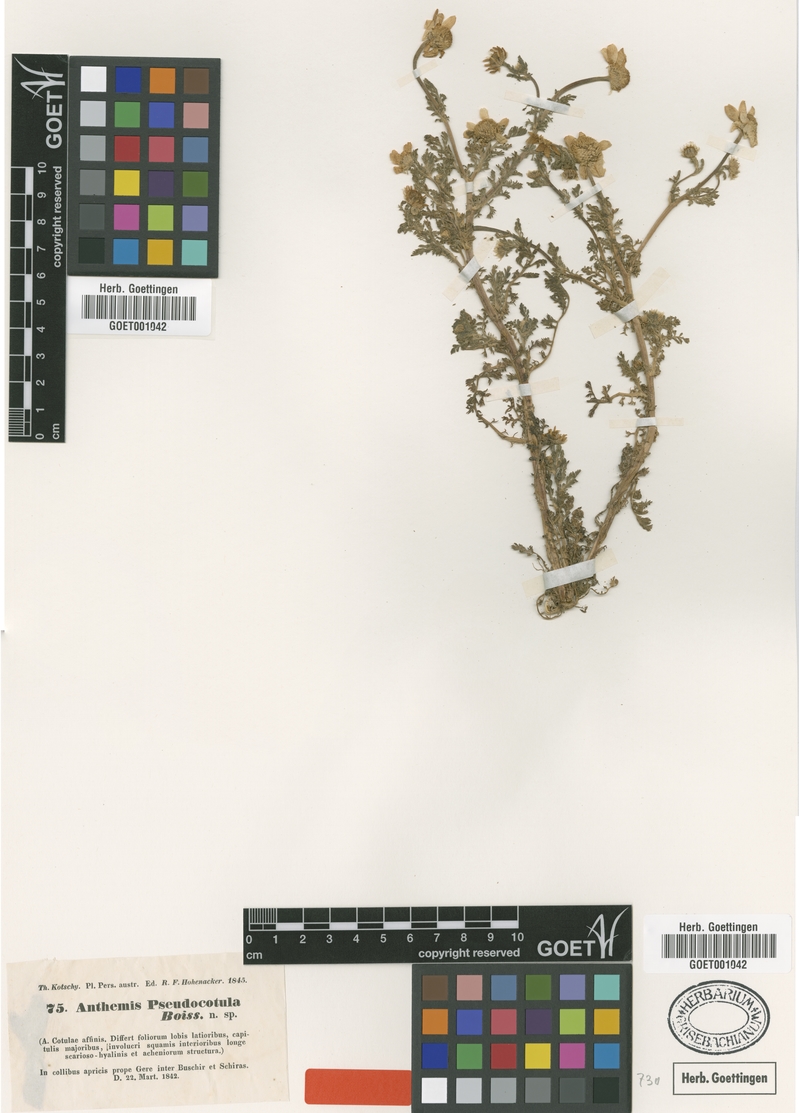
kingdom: Plantae
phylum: Tracheophyta
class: Magnoliopsida
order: Asterales
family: Asteraceae
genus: Anthemis
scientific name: Anthemis pseudocotula
